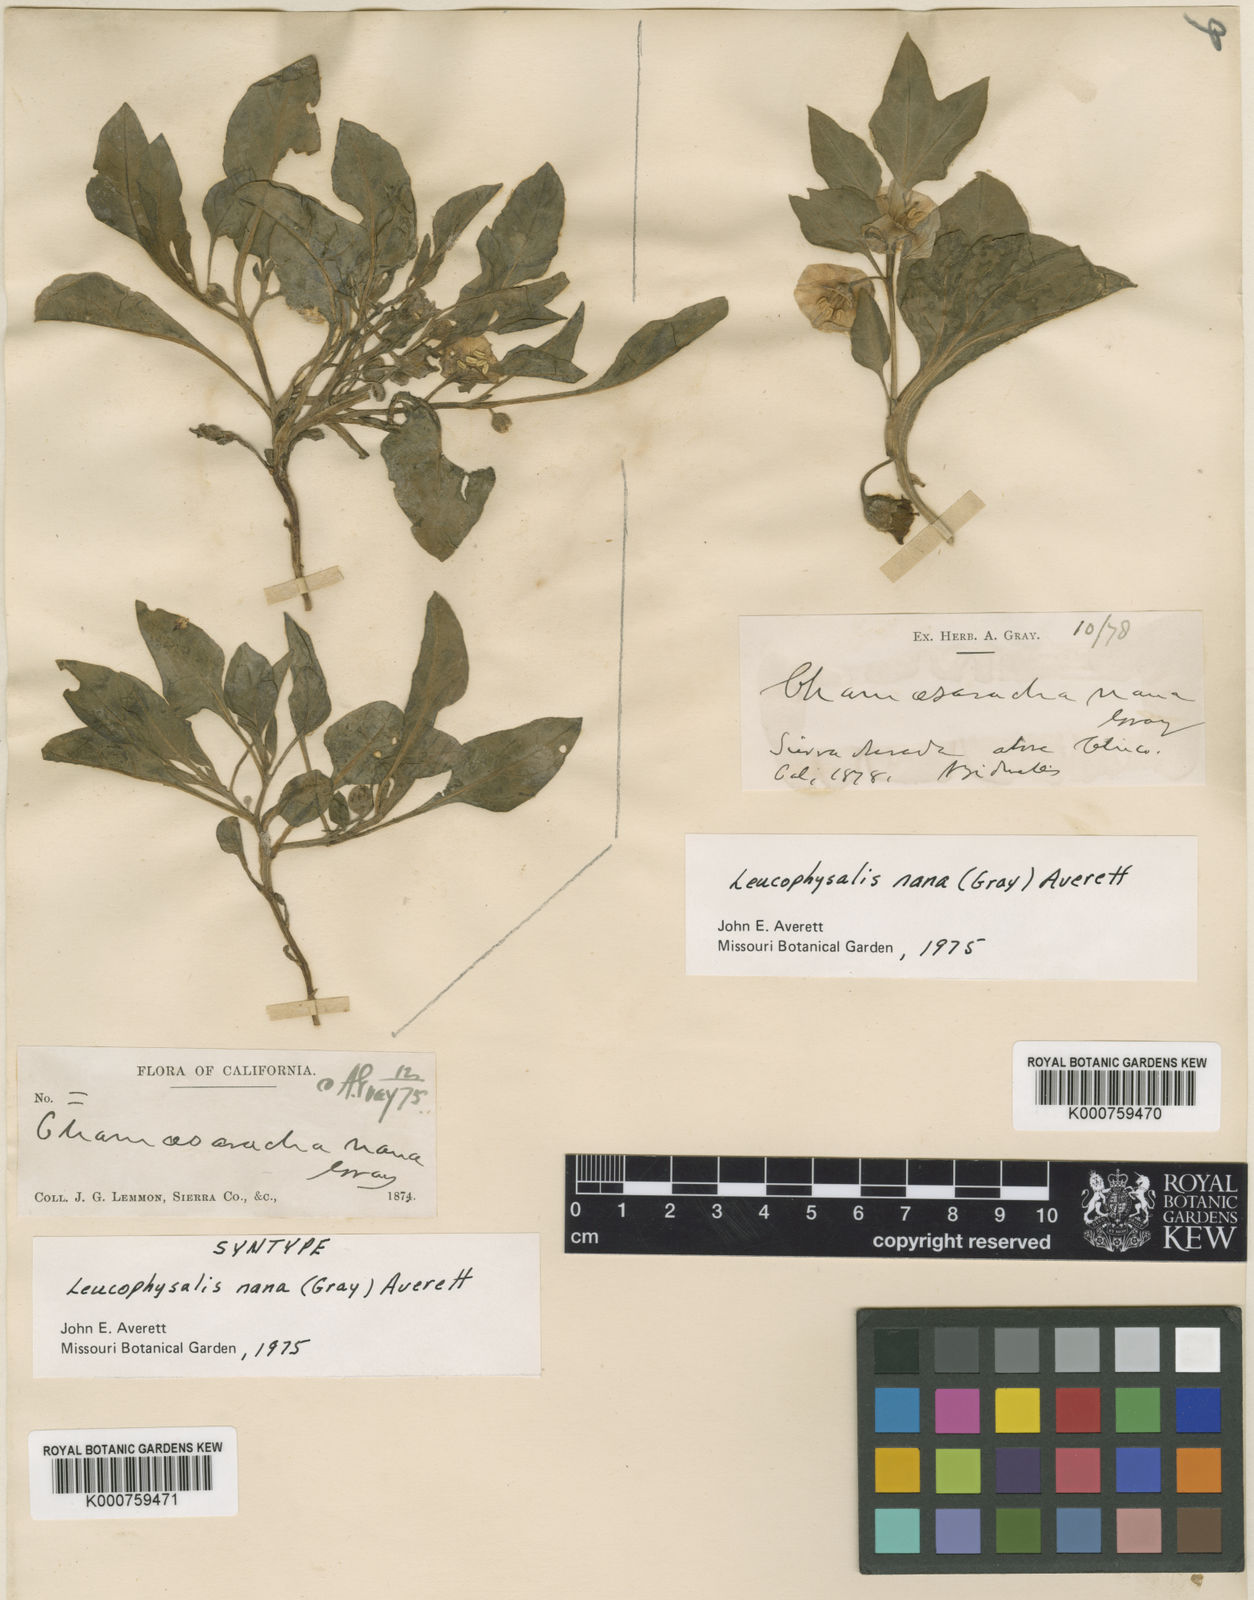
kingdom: Plantae
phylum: Tracheophyta
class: Magnoliopsida
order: Solanales
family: Solanaceae
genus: Leucophysalis
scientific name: Leucophysalis nana
